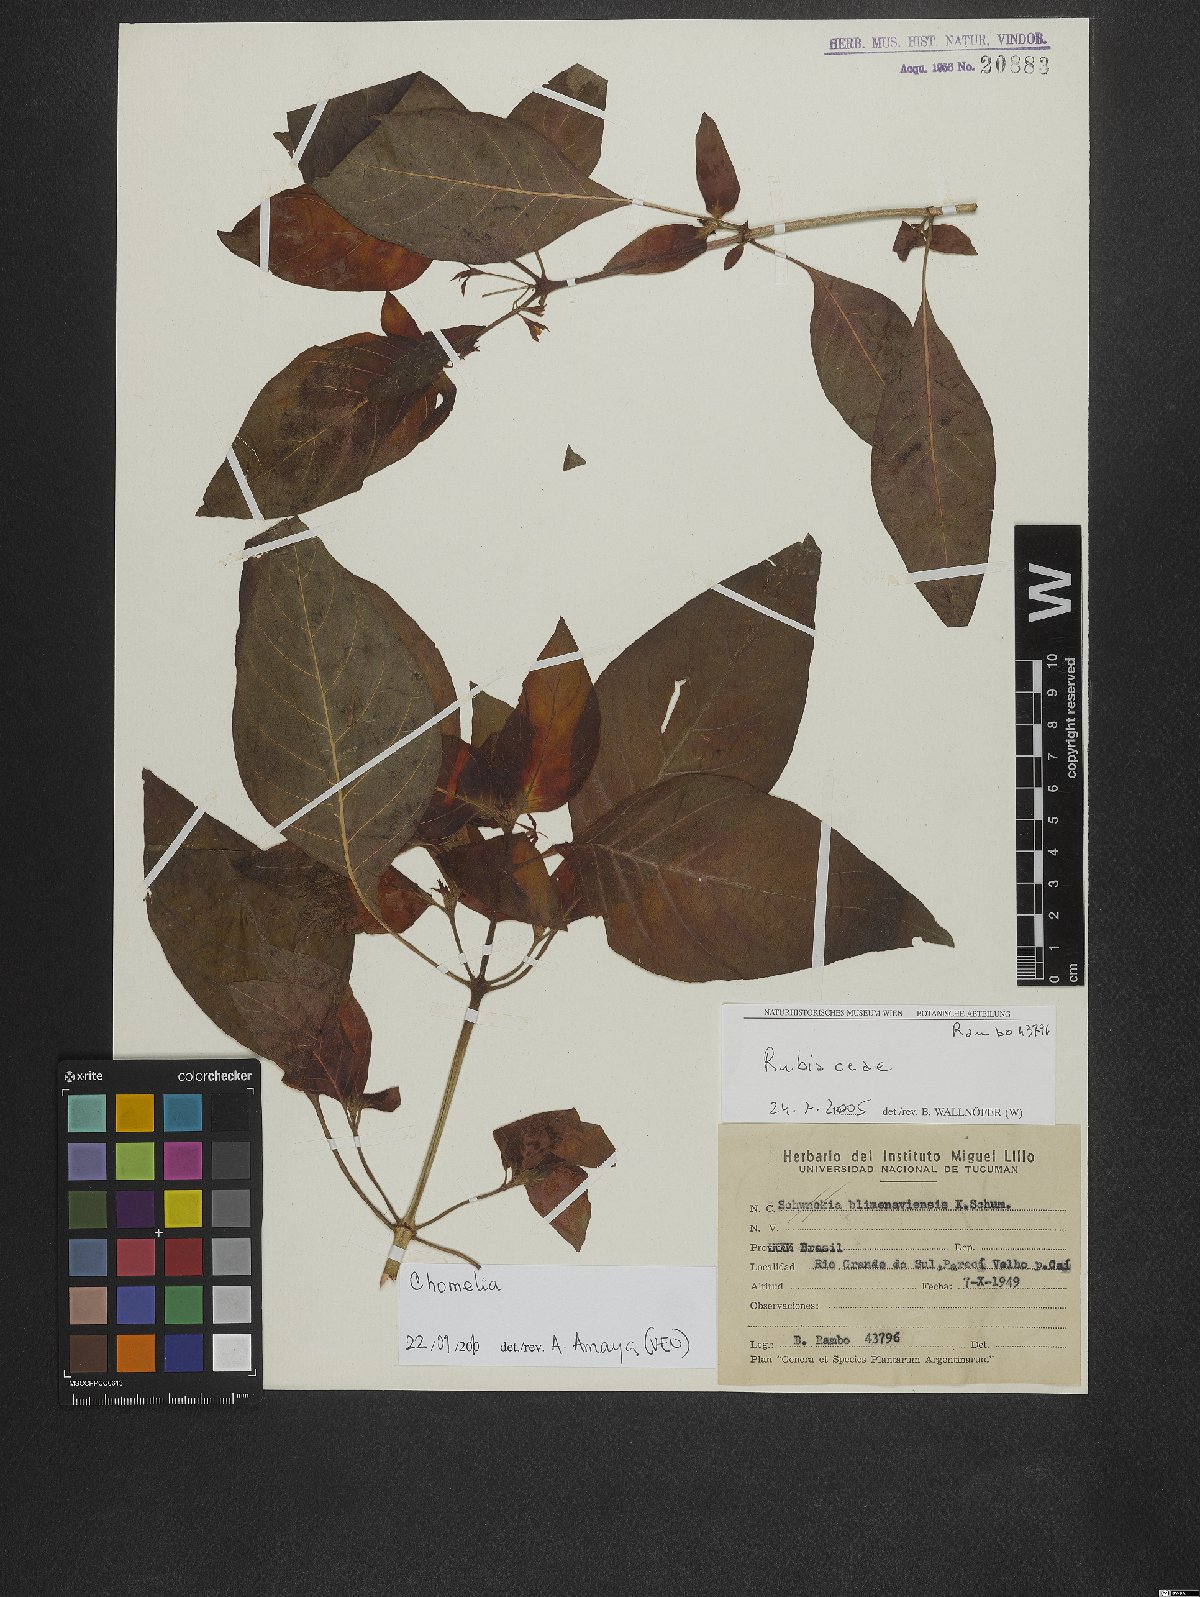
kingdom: Plantae
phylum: Tracheophyta
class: Magnoliopsida
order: Gentianales
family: Rubiaceae
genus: Chomelia
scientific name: Chomelia
